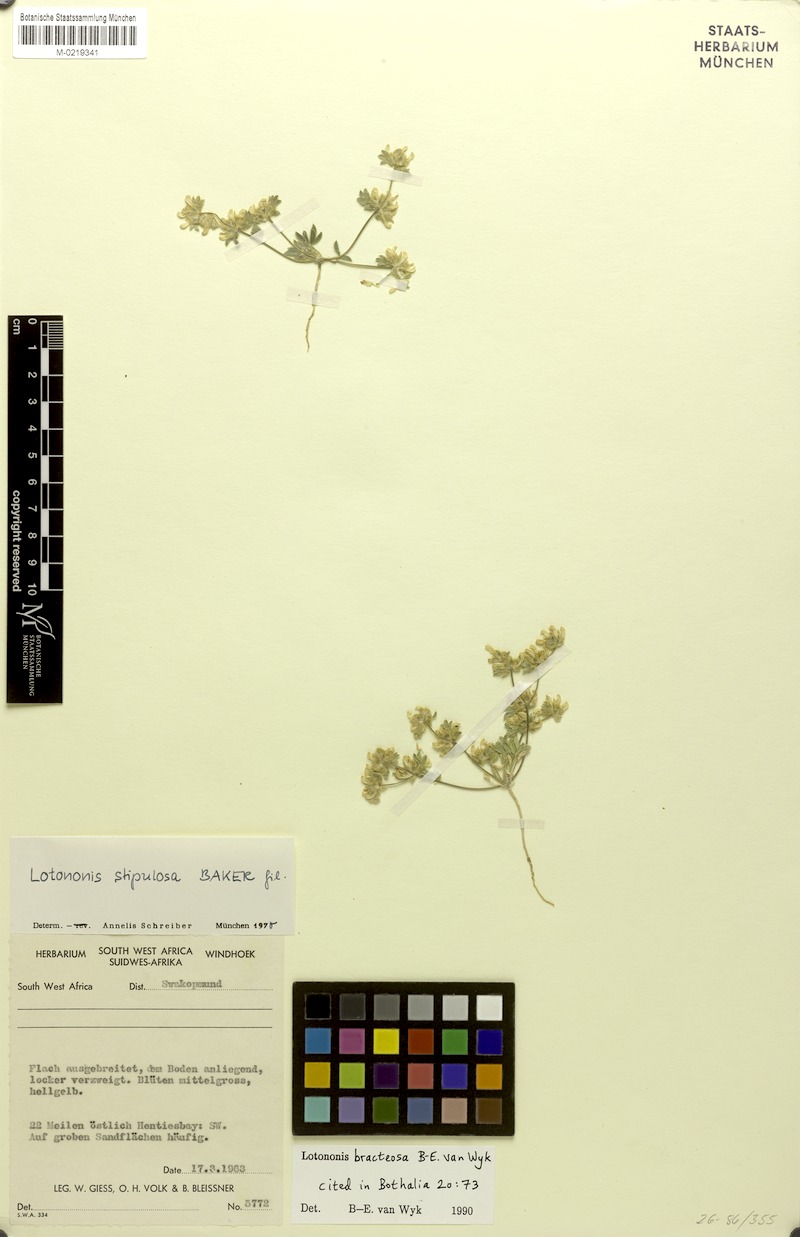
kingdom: Plantae
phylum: Tracheophyta
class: Magnoliopsida
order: Fabales
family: Fabaceae
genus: Leobordea
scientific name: Leobordea bracteosa
